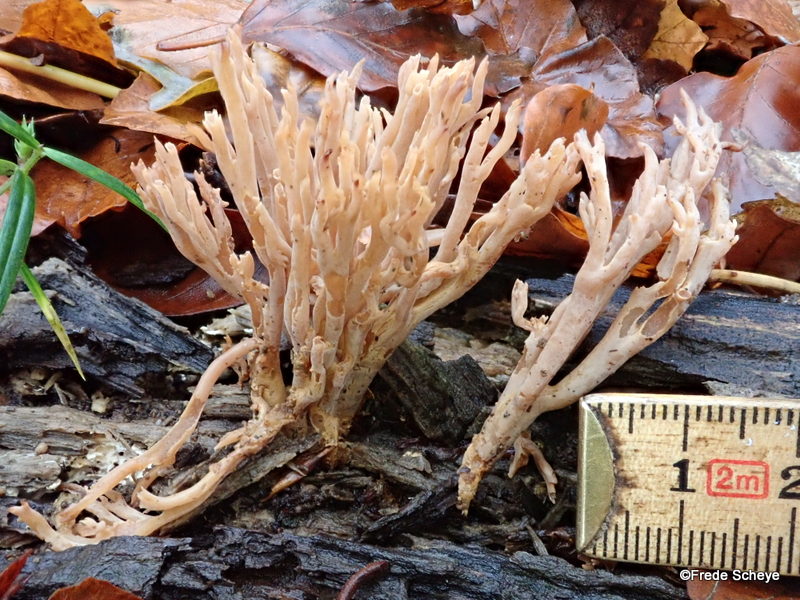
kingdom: Fungi
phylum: Basidiomycota
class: Agaricomycetes
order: Gomphales
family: Gomphaceae
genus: Ramaria
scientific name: Ramaria stricta
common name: rank koralsvamp
